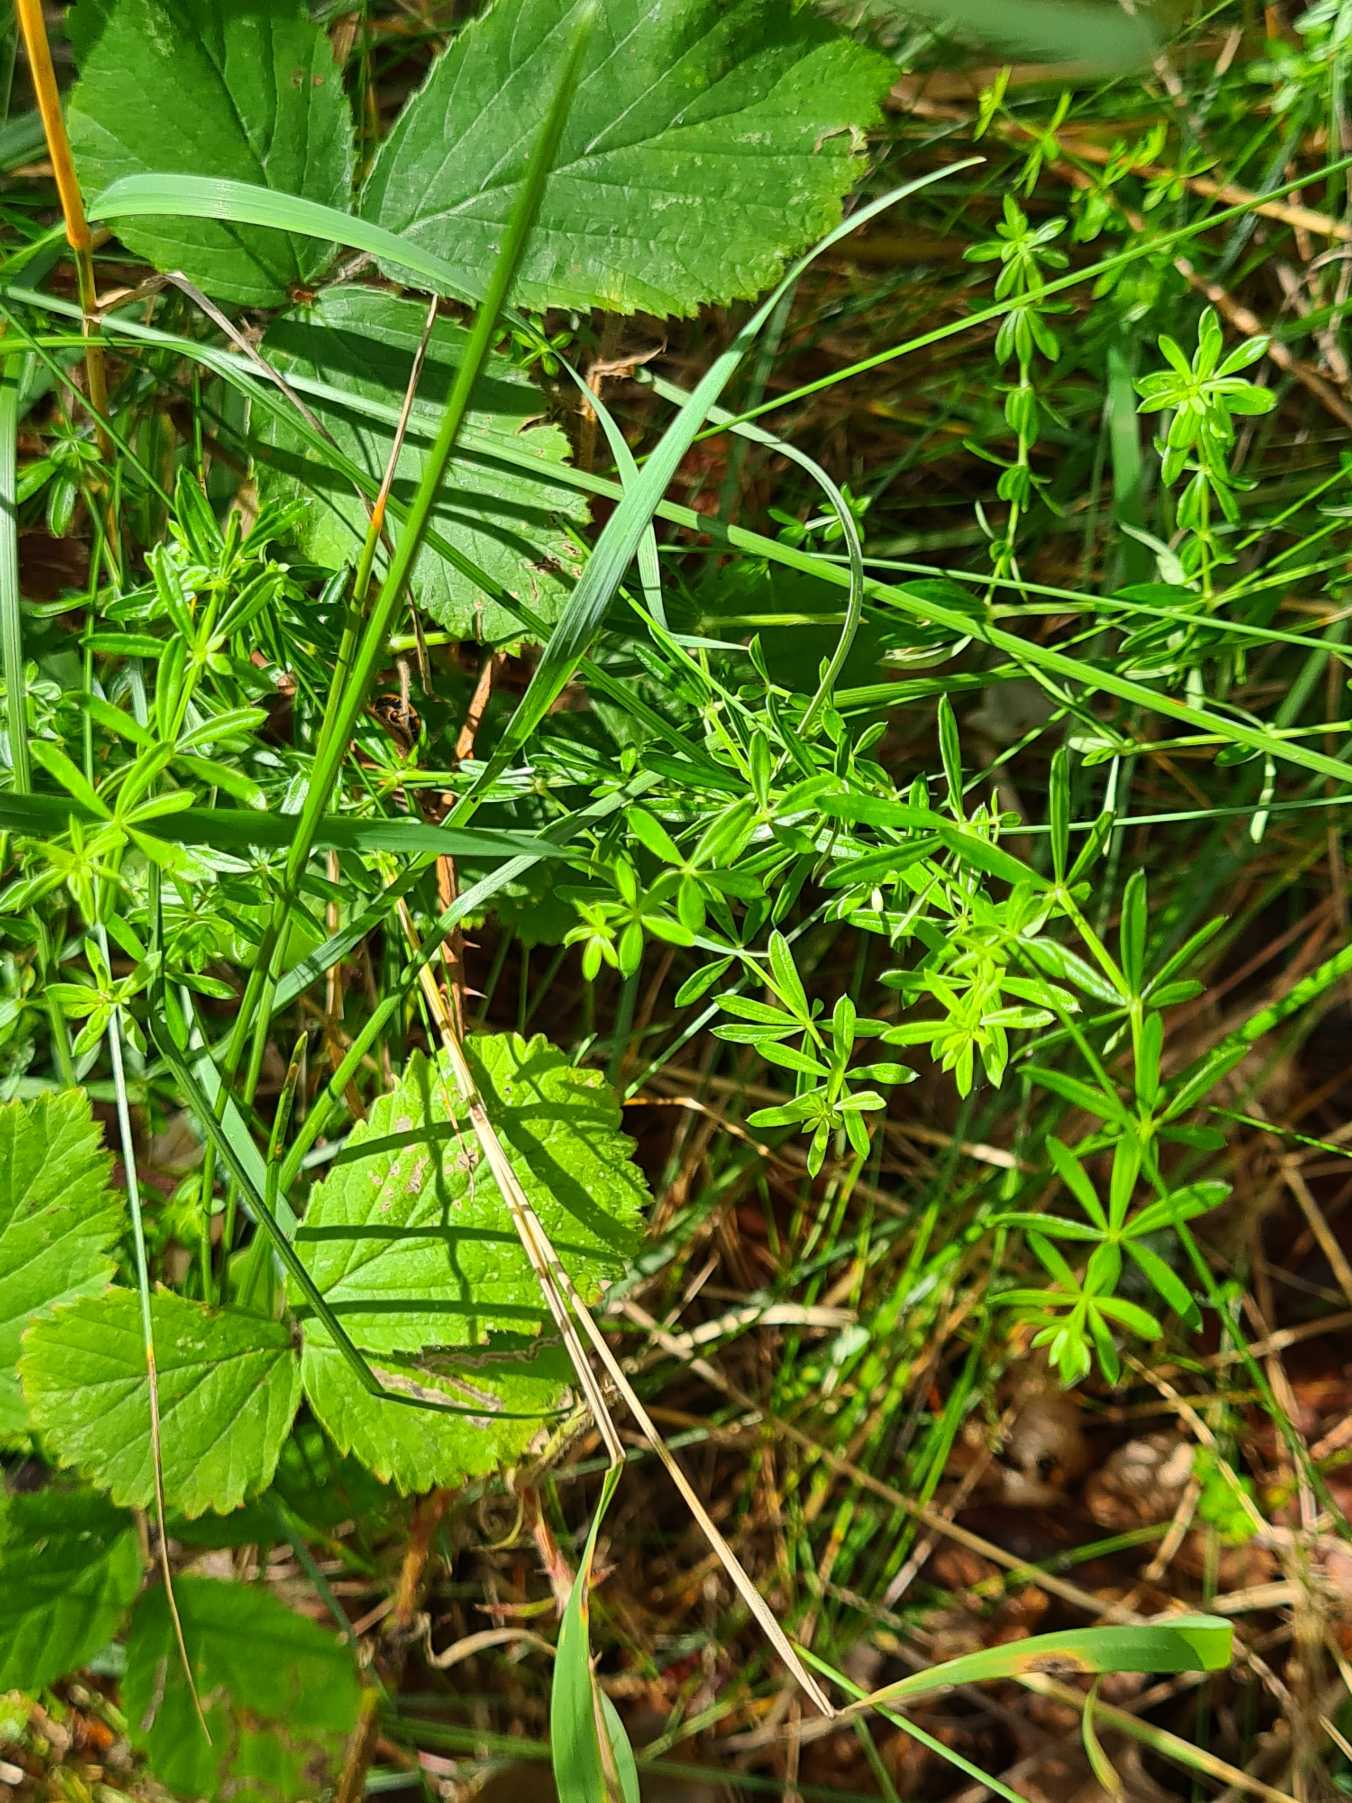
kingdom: Plantae
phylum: Tracheophyta
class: Magnoliopsida
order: Gentianales
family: Rubiaceae
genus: Galium
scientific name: Galium aparine
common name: Burre-snerre
